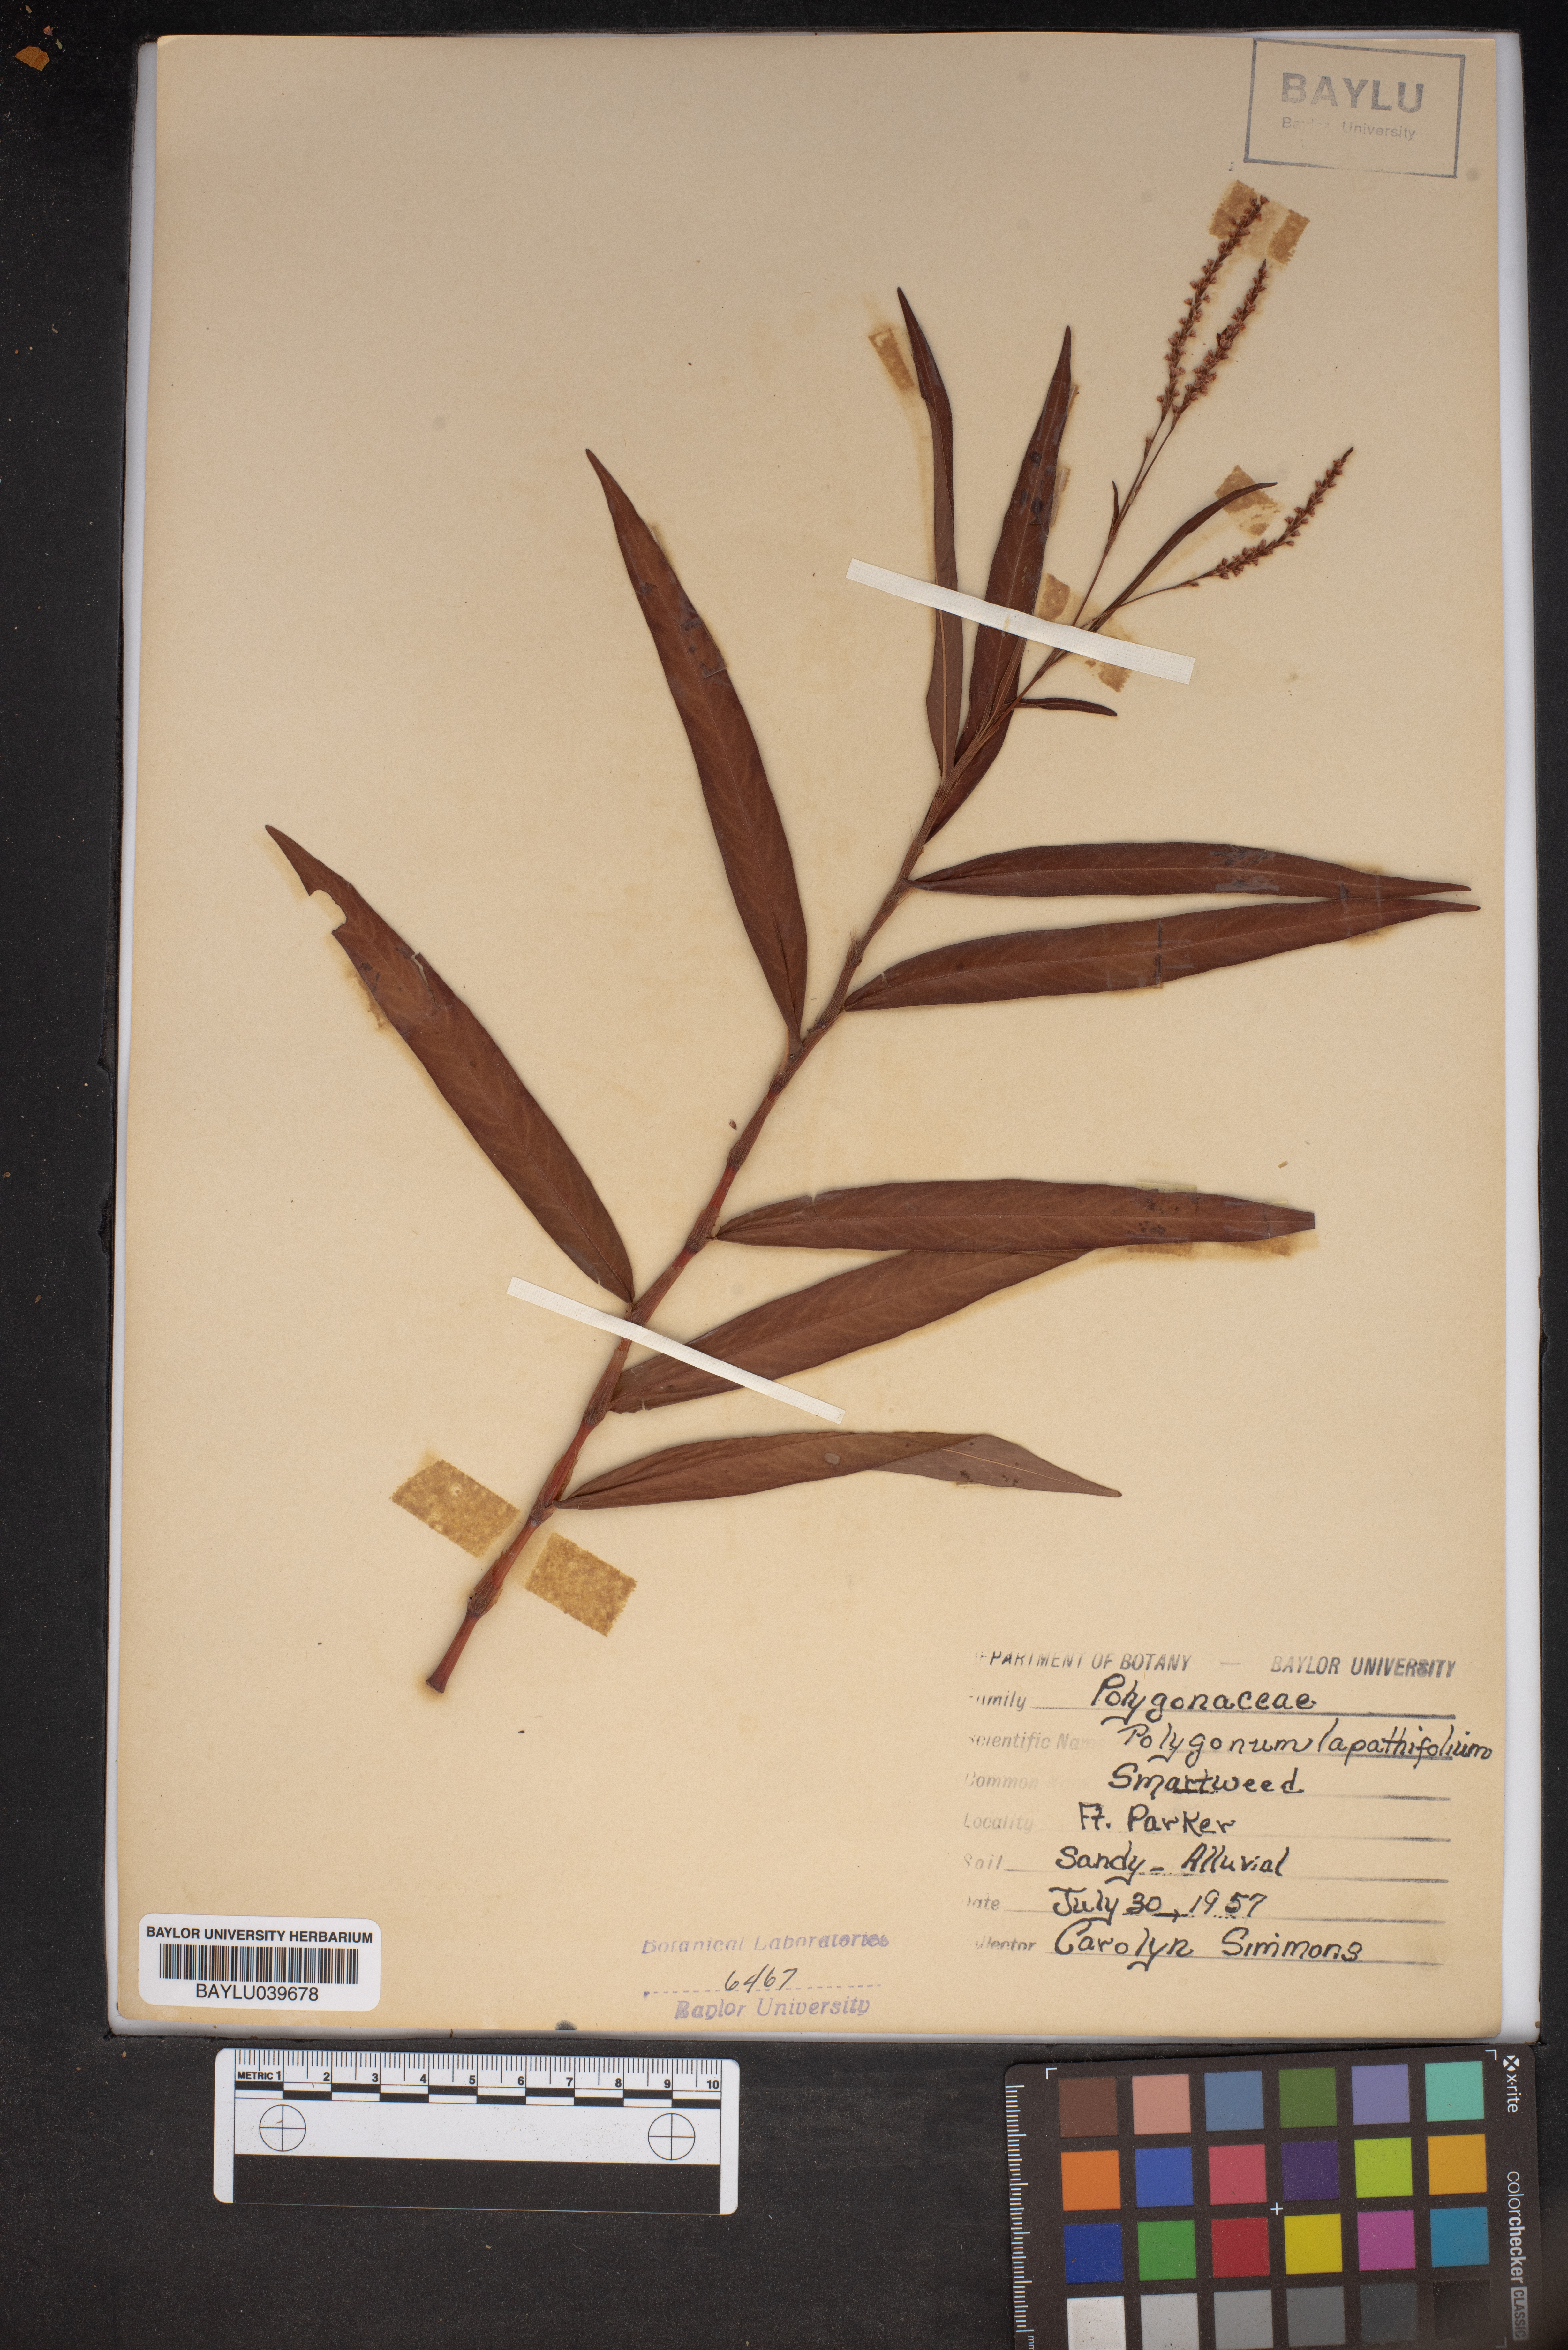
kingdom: Plantae
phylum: Tracheophyta
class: Magnoliopsida
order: Caryophyllales
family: Polygonaceae
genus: Persicaria
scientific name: Persicaria lapathifolia
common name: Curlytop knotweed
